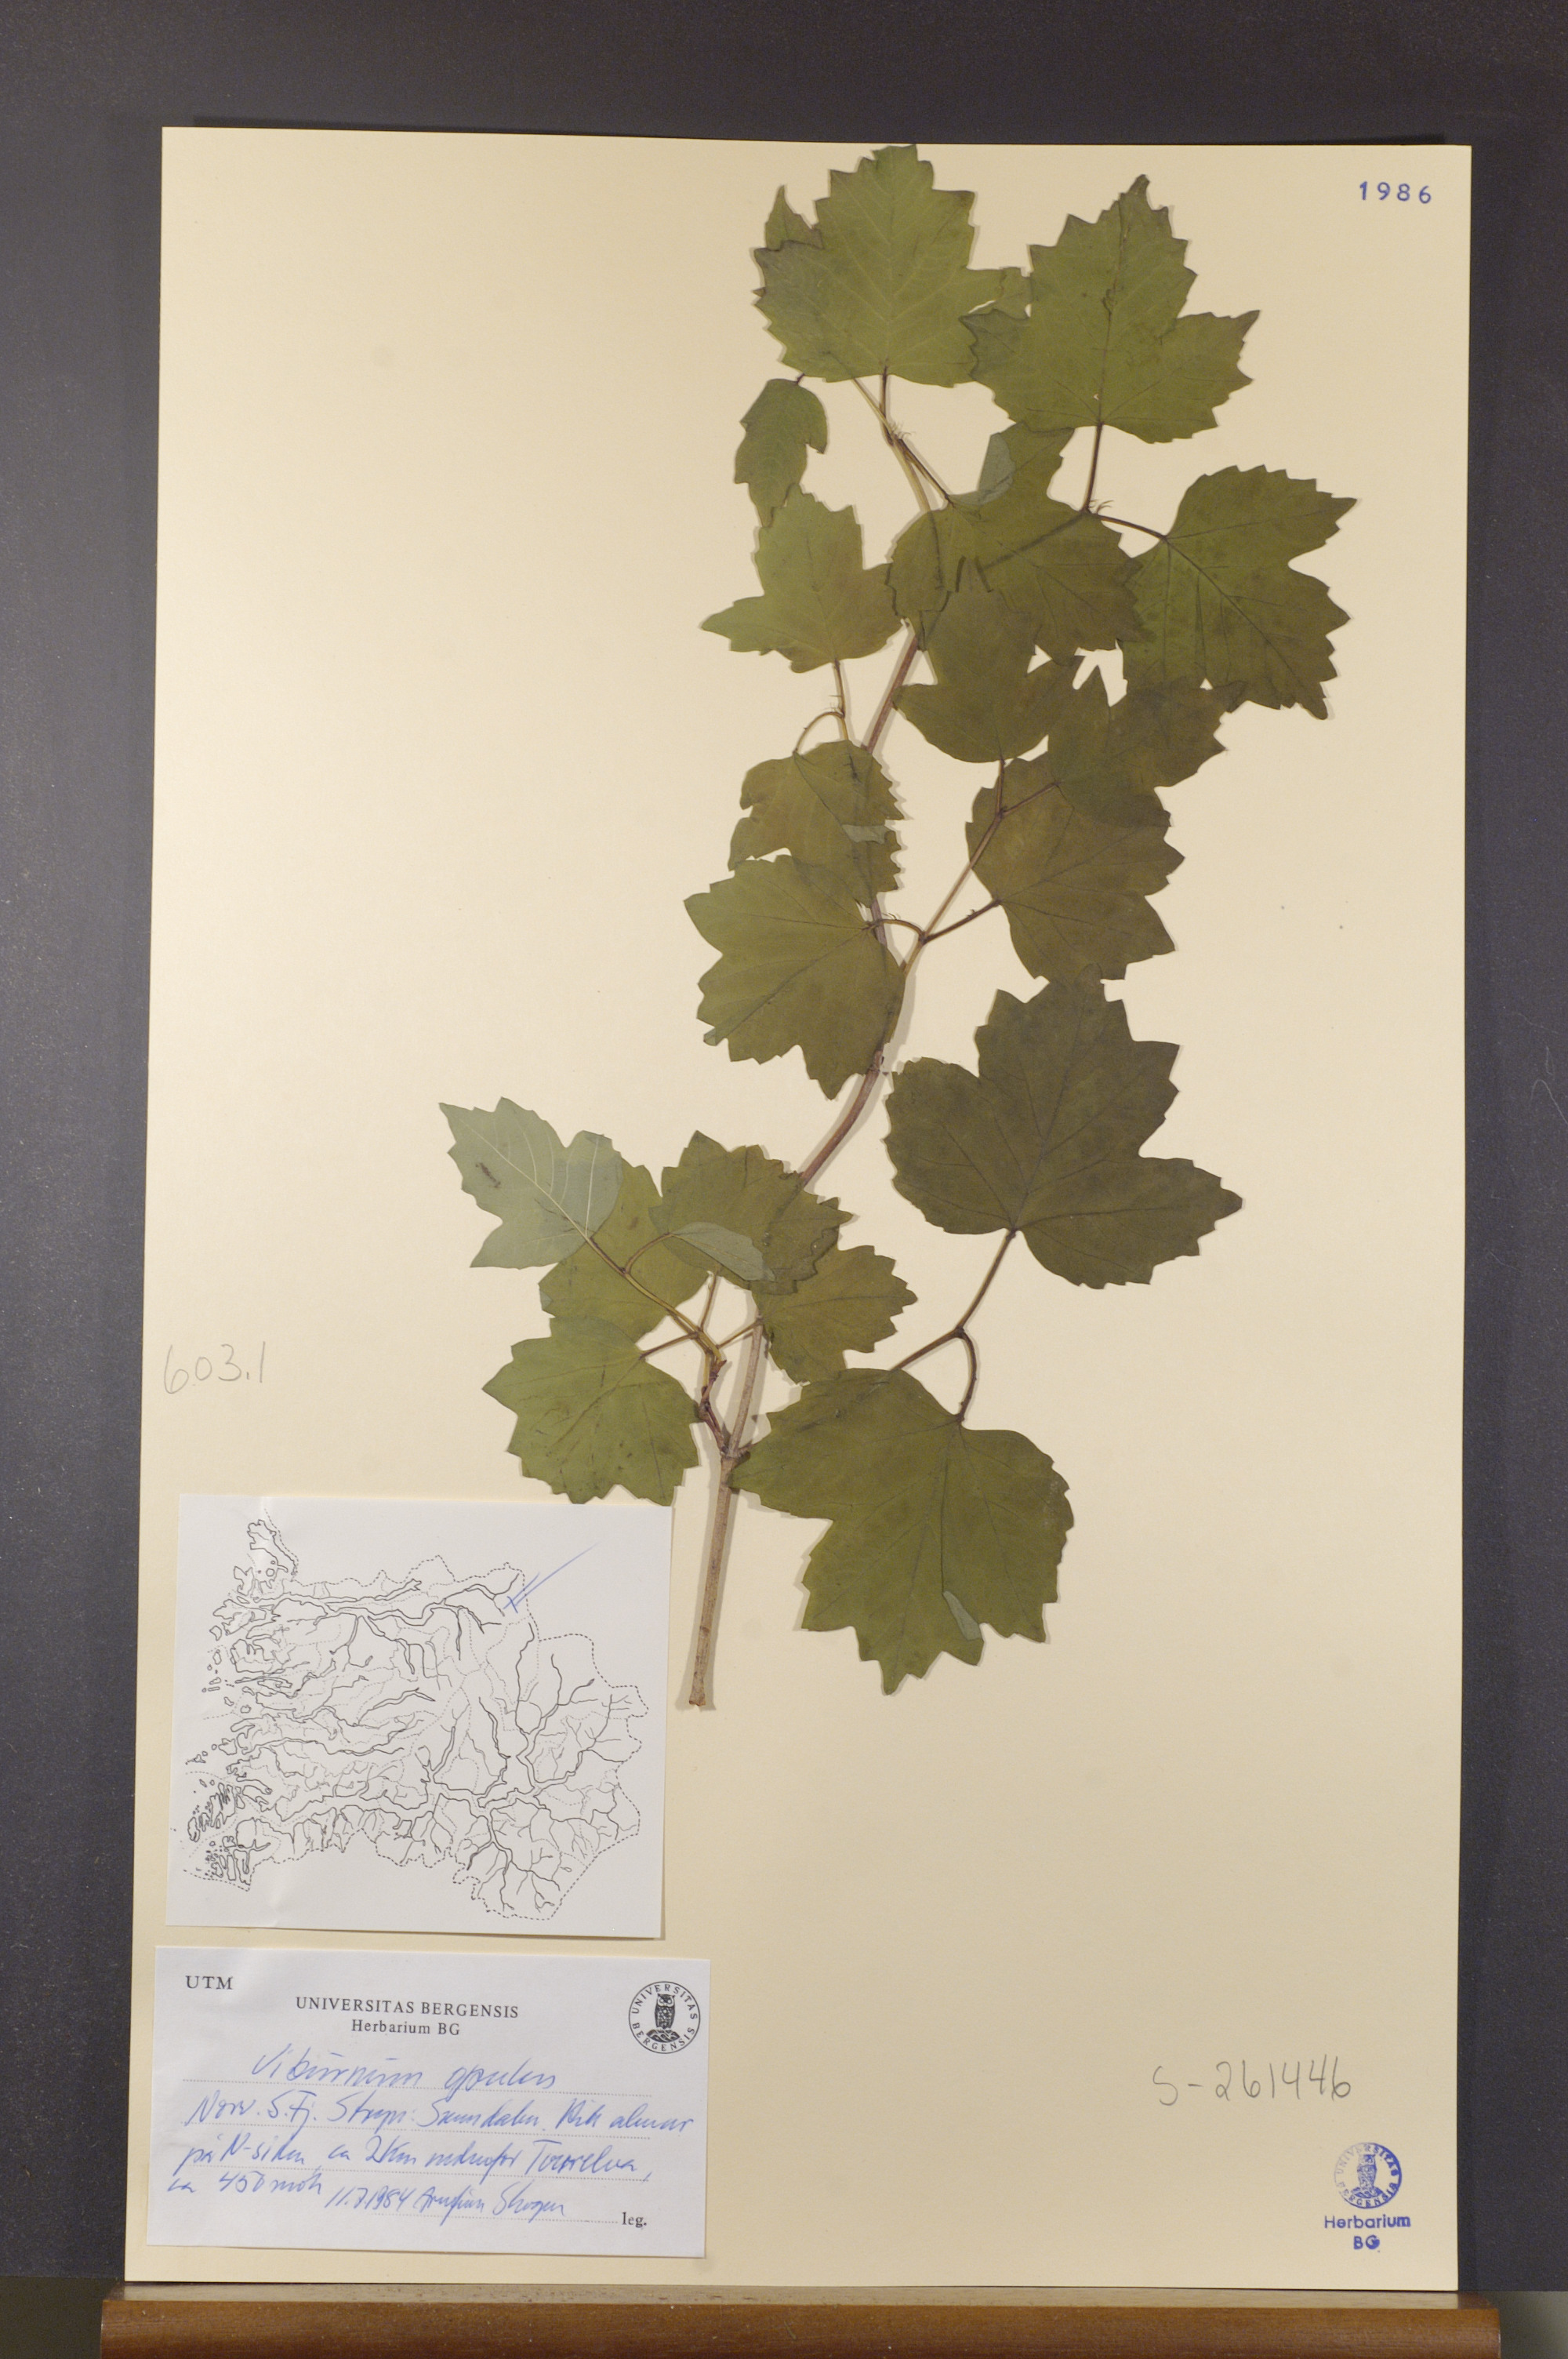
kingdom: Plantae
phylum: Tracheophyta
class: Magnoliopsida
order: Dipsacales
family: Viburnaceae
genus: Viburnum
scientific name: Viburnum opulus
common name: Guelder-rose
